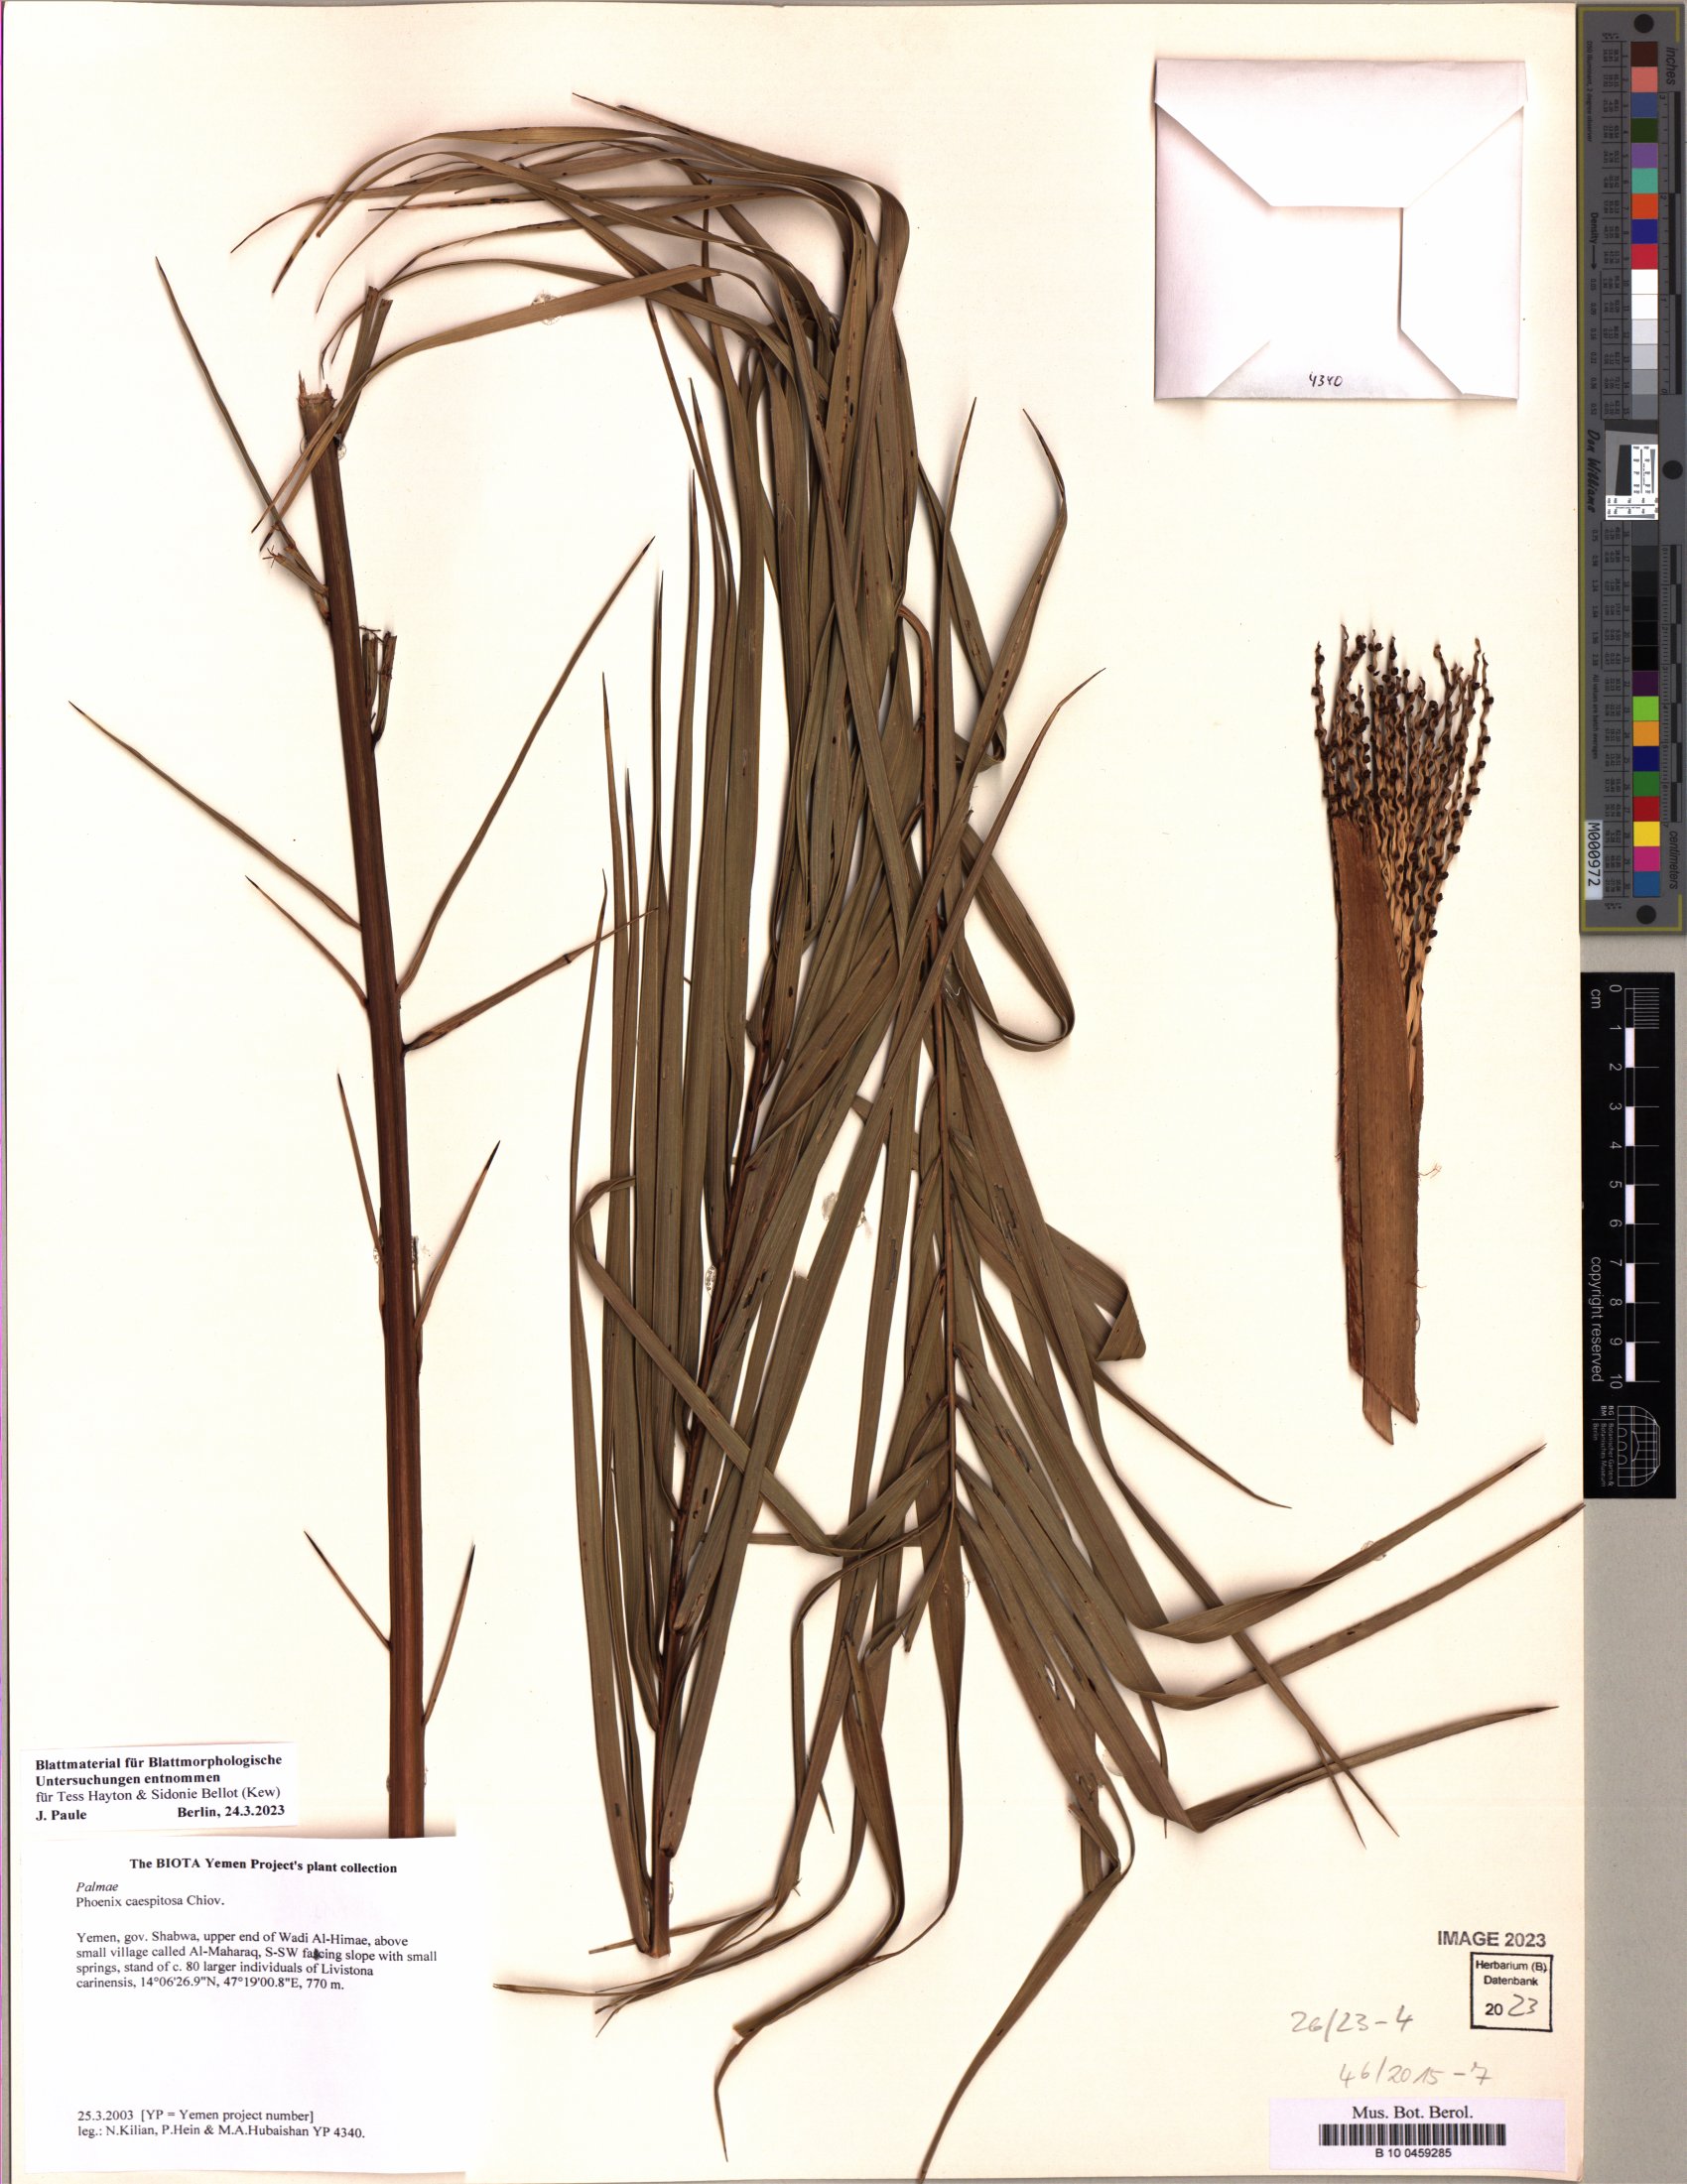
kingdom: Plantae
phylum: Tracheophyta
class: Liliopsida
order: Arecales
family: Arecaceae
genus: Phoenix
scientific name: Phoenix caespitosa
